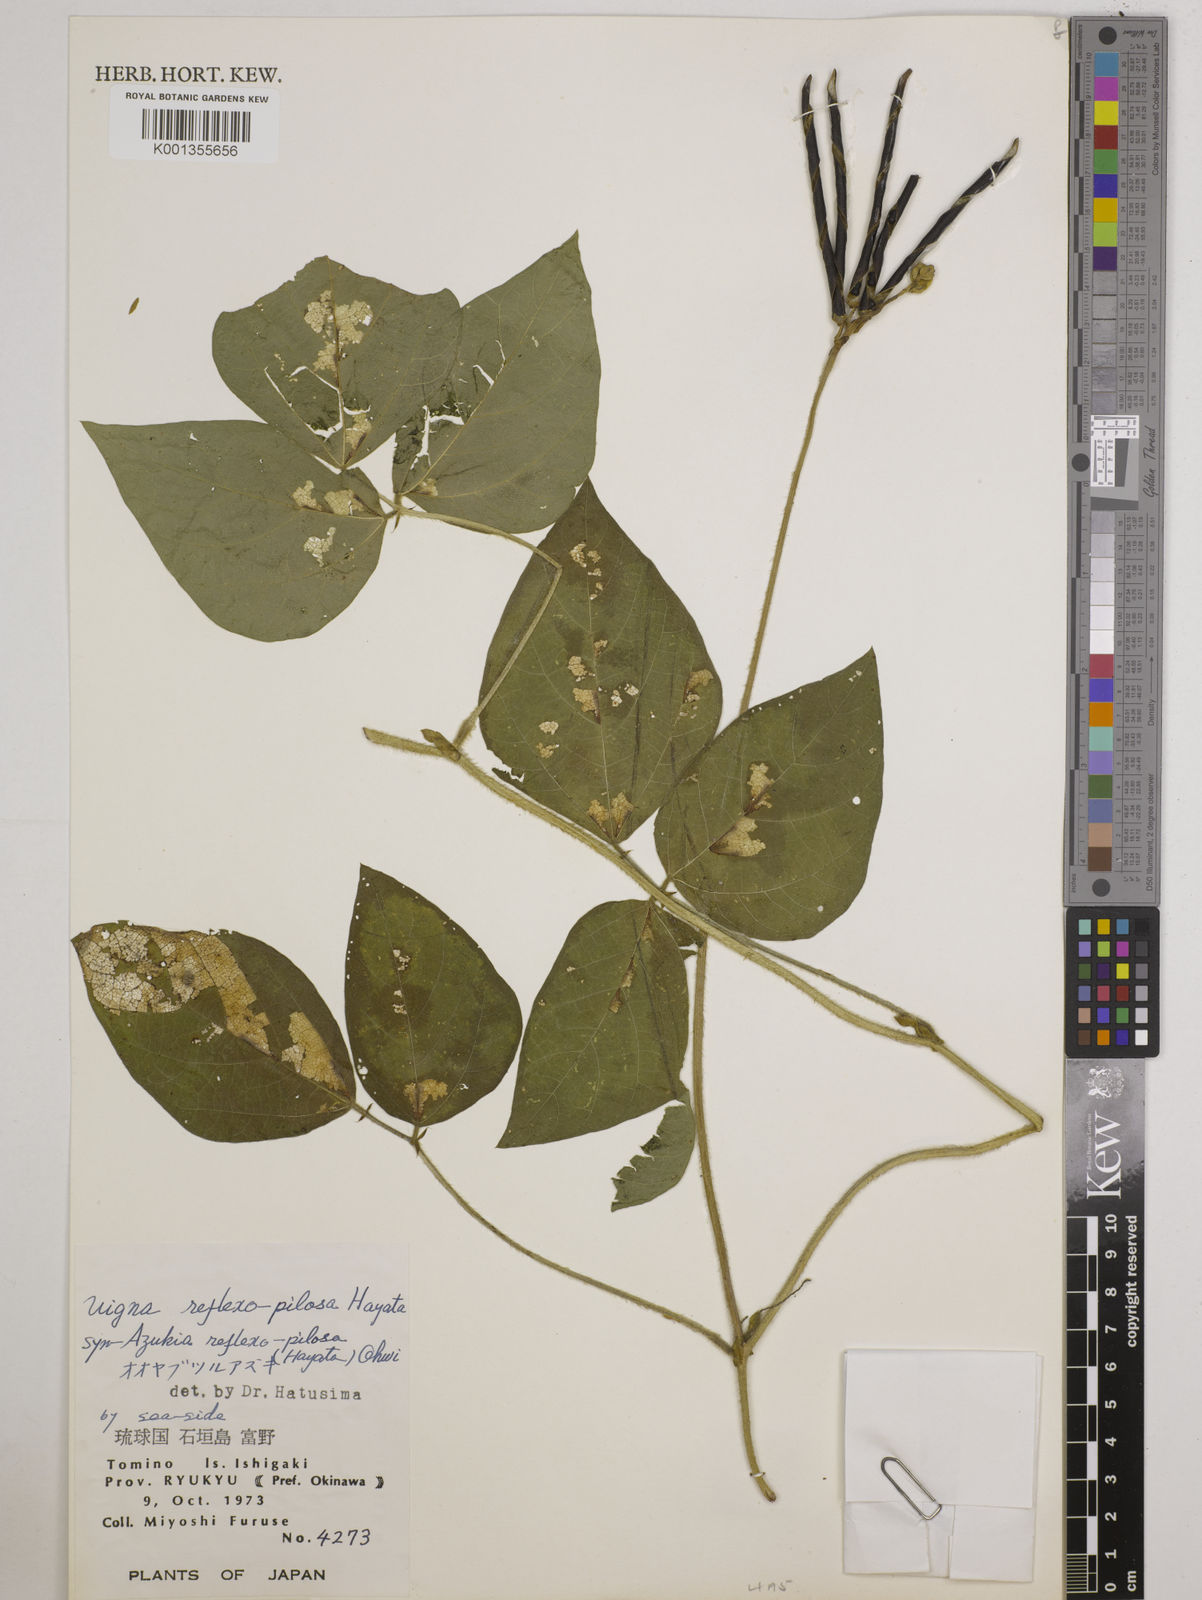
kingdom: Plantae
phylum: Tracheophyta
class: Magnoliopsida
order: Fabales
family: Fabaceae
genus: Vigna
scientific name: Vigna reflexopilosa
